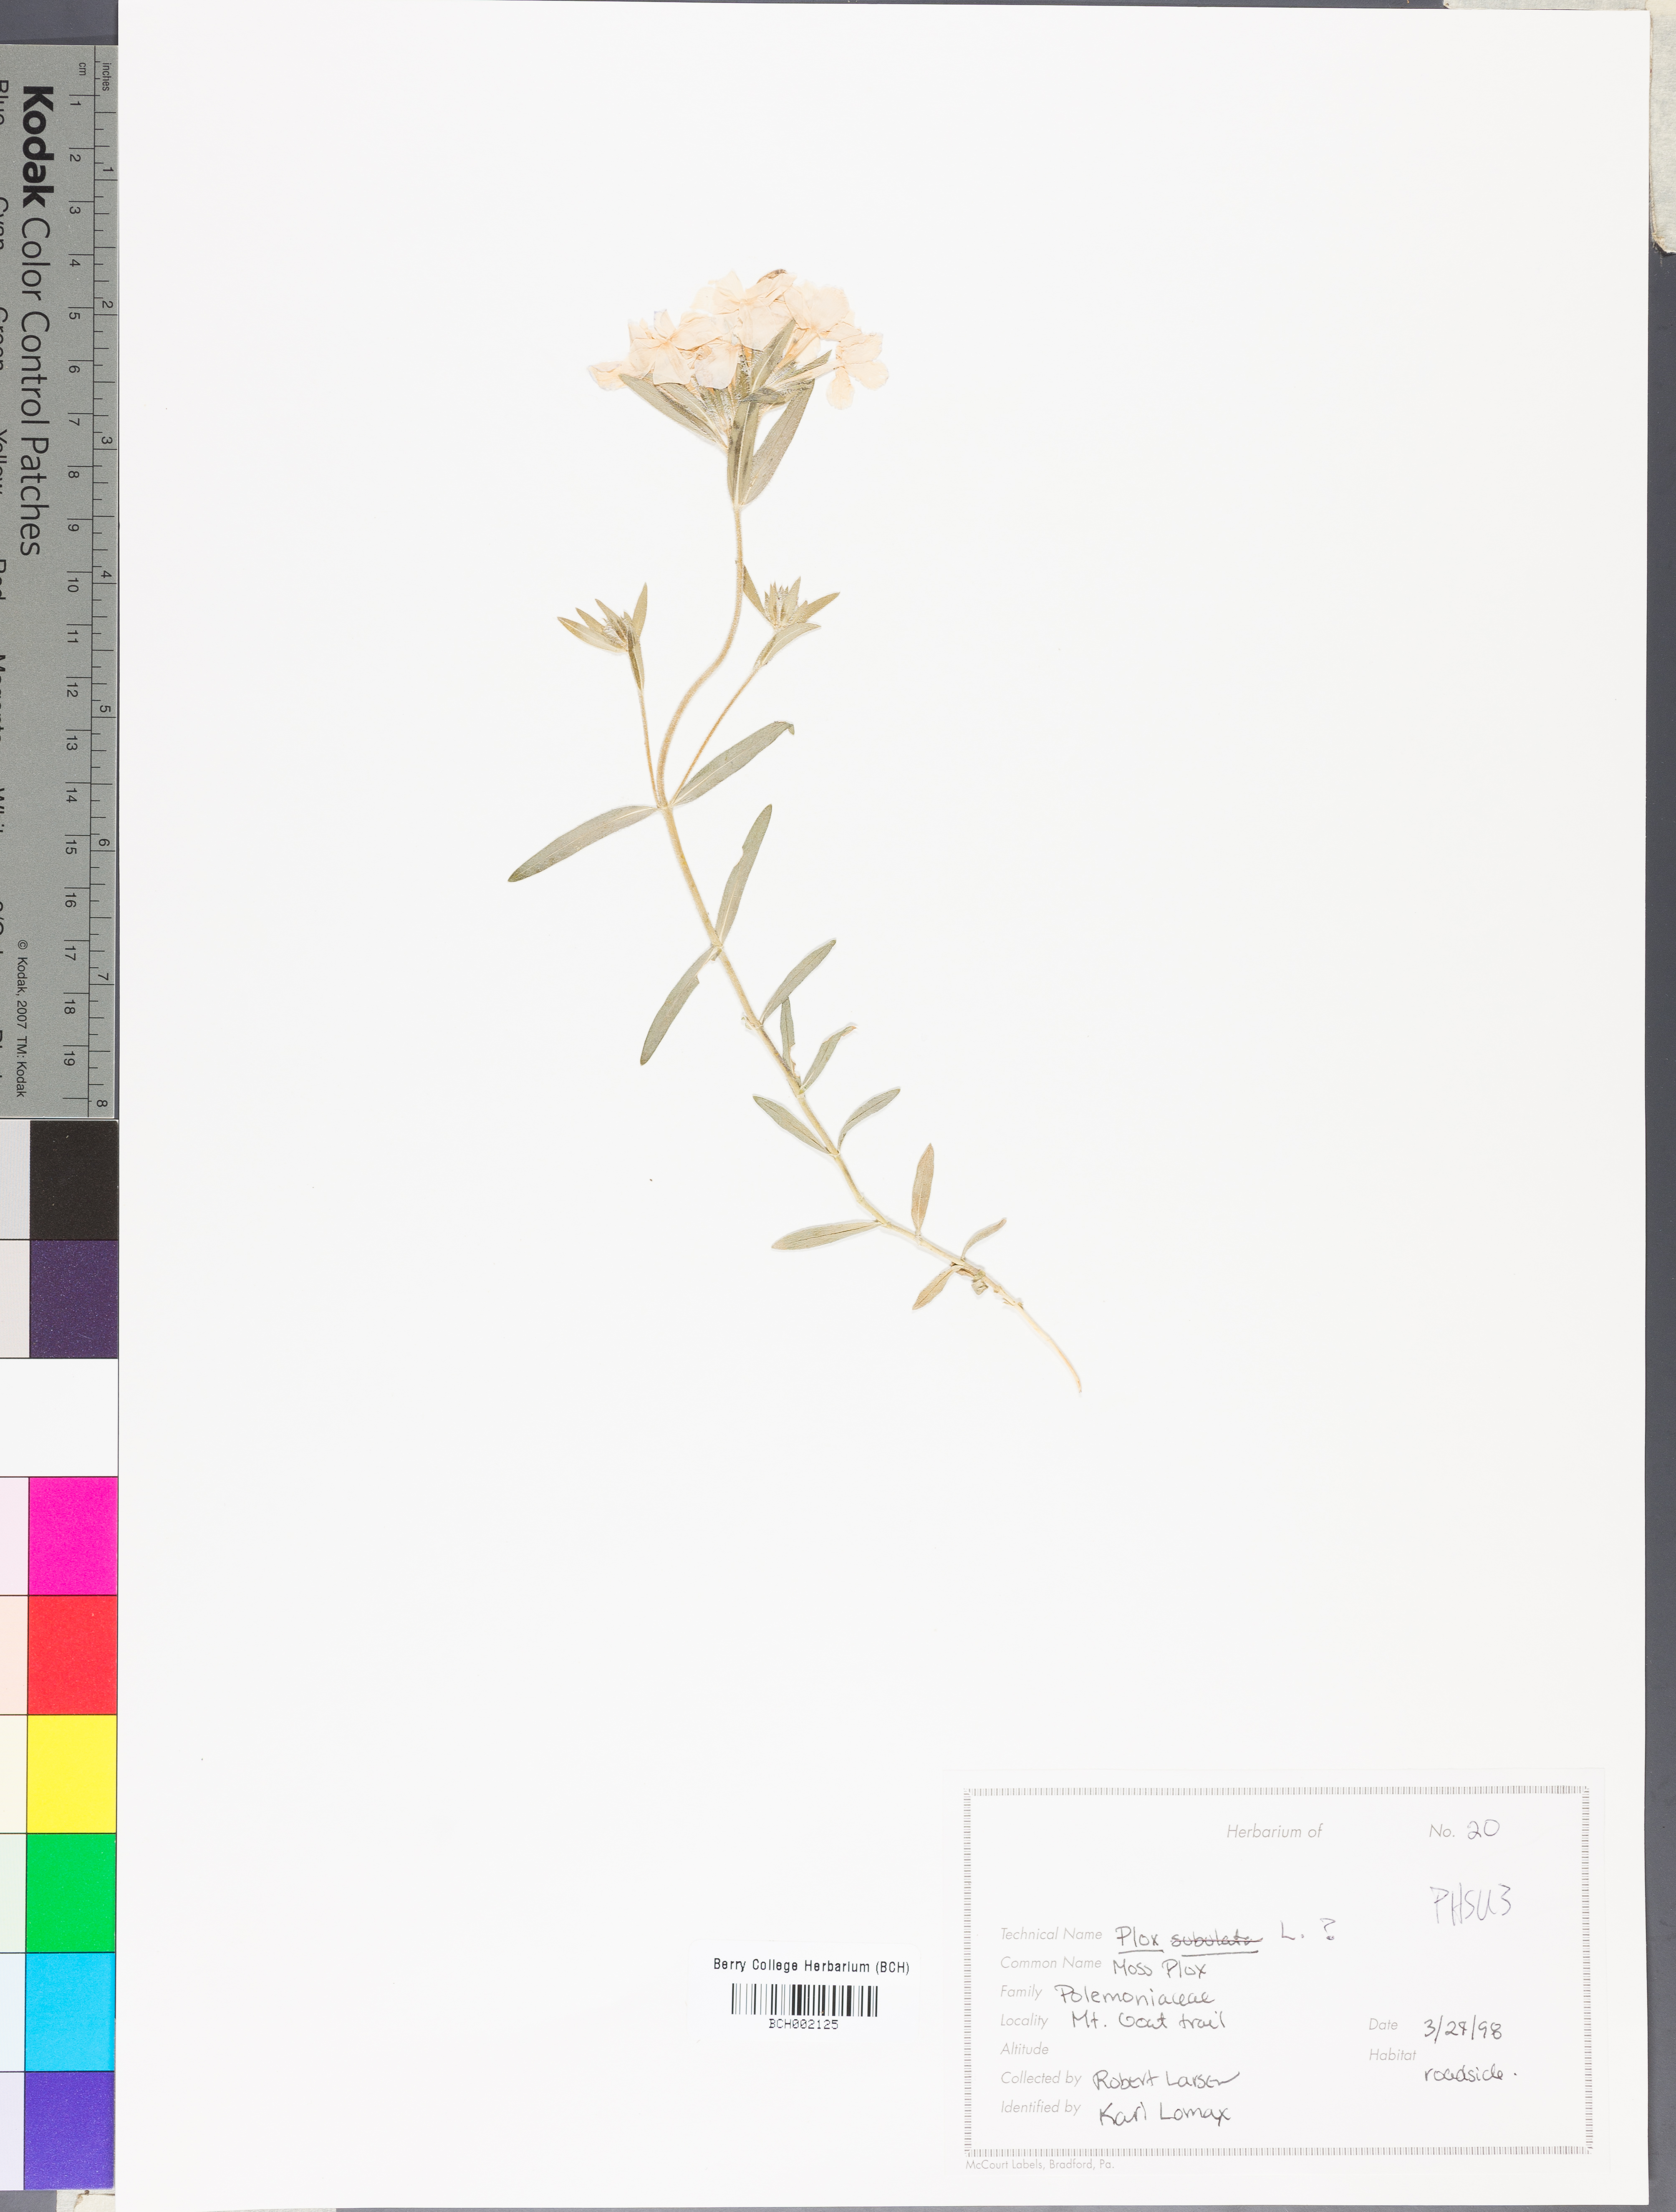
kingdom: Plantae
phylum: Tracheophyta
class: Magnoliopsida
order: Ericales
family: Polemoniaceae
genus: Phlox
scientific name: Phlox subulata
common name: Moss phlox
